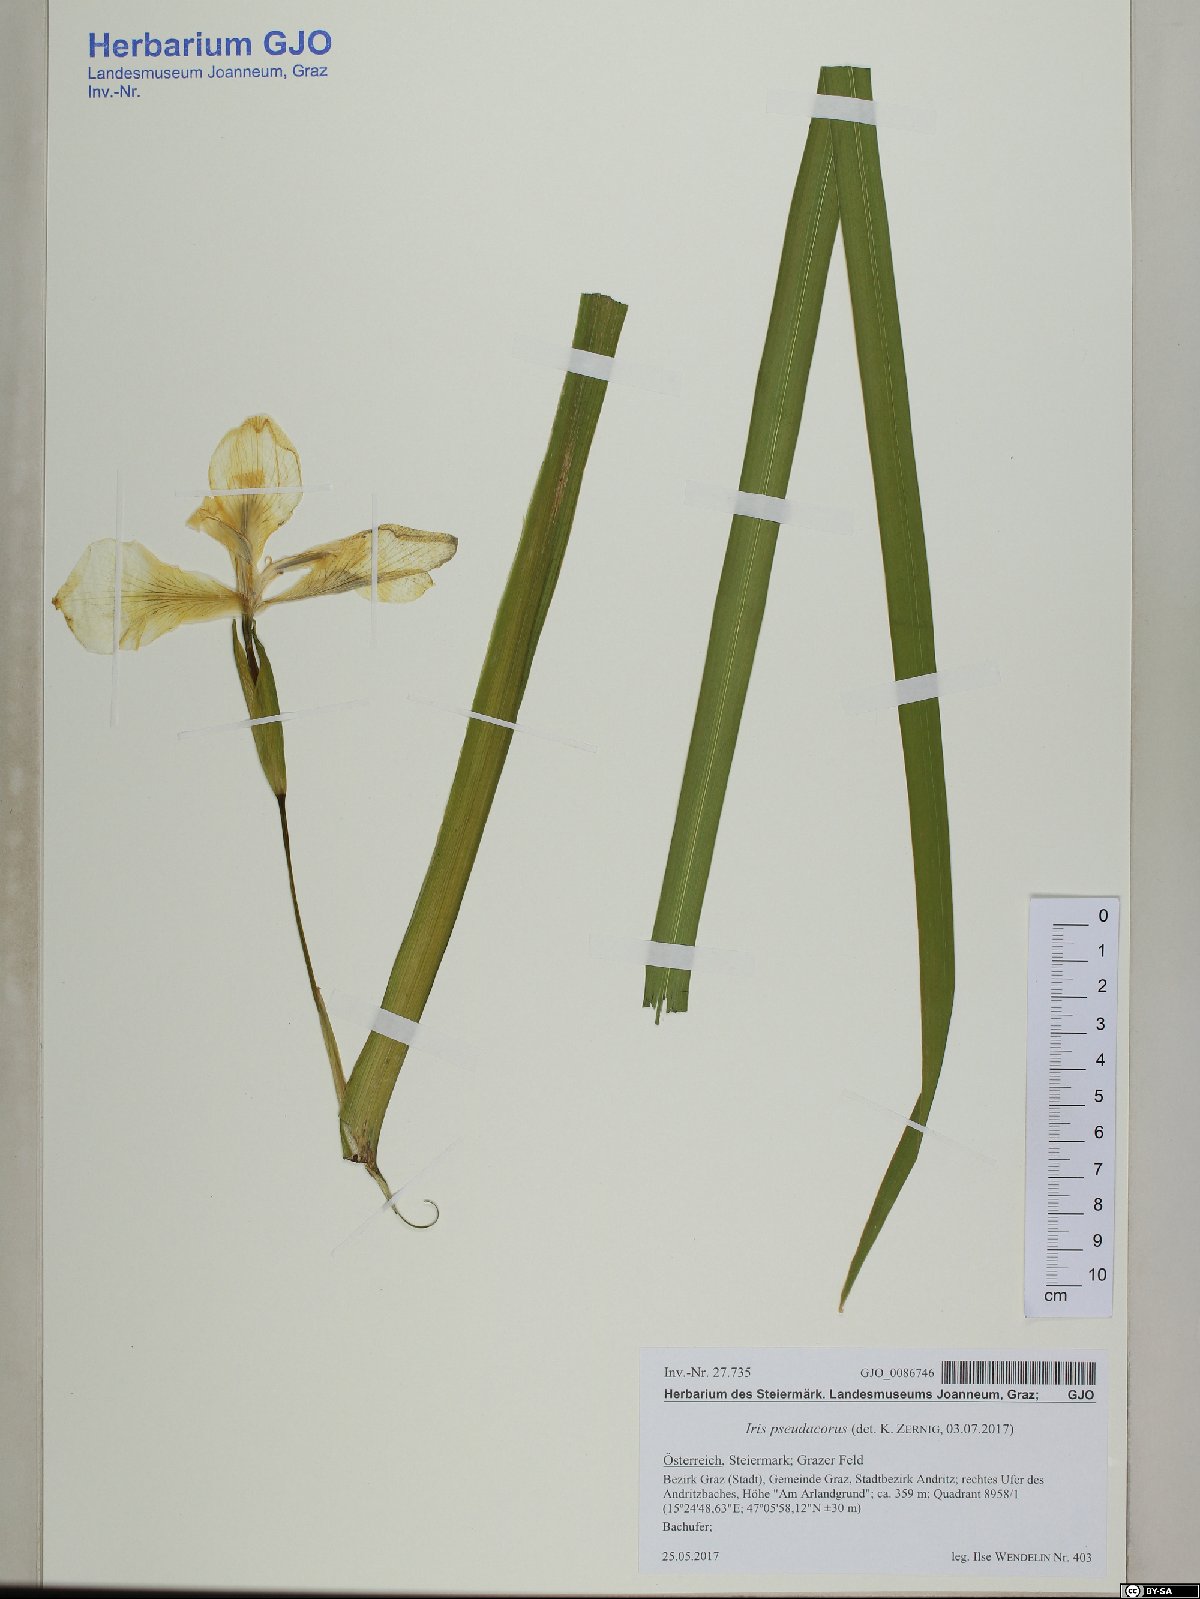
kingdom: Plantae
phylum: Tracheophyta
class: Liliopsida
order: Asparagales
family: Iridaceae
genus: Iris
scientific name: Iris pseudacorus
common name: Yellow flag
